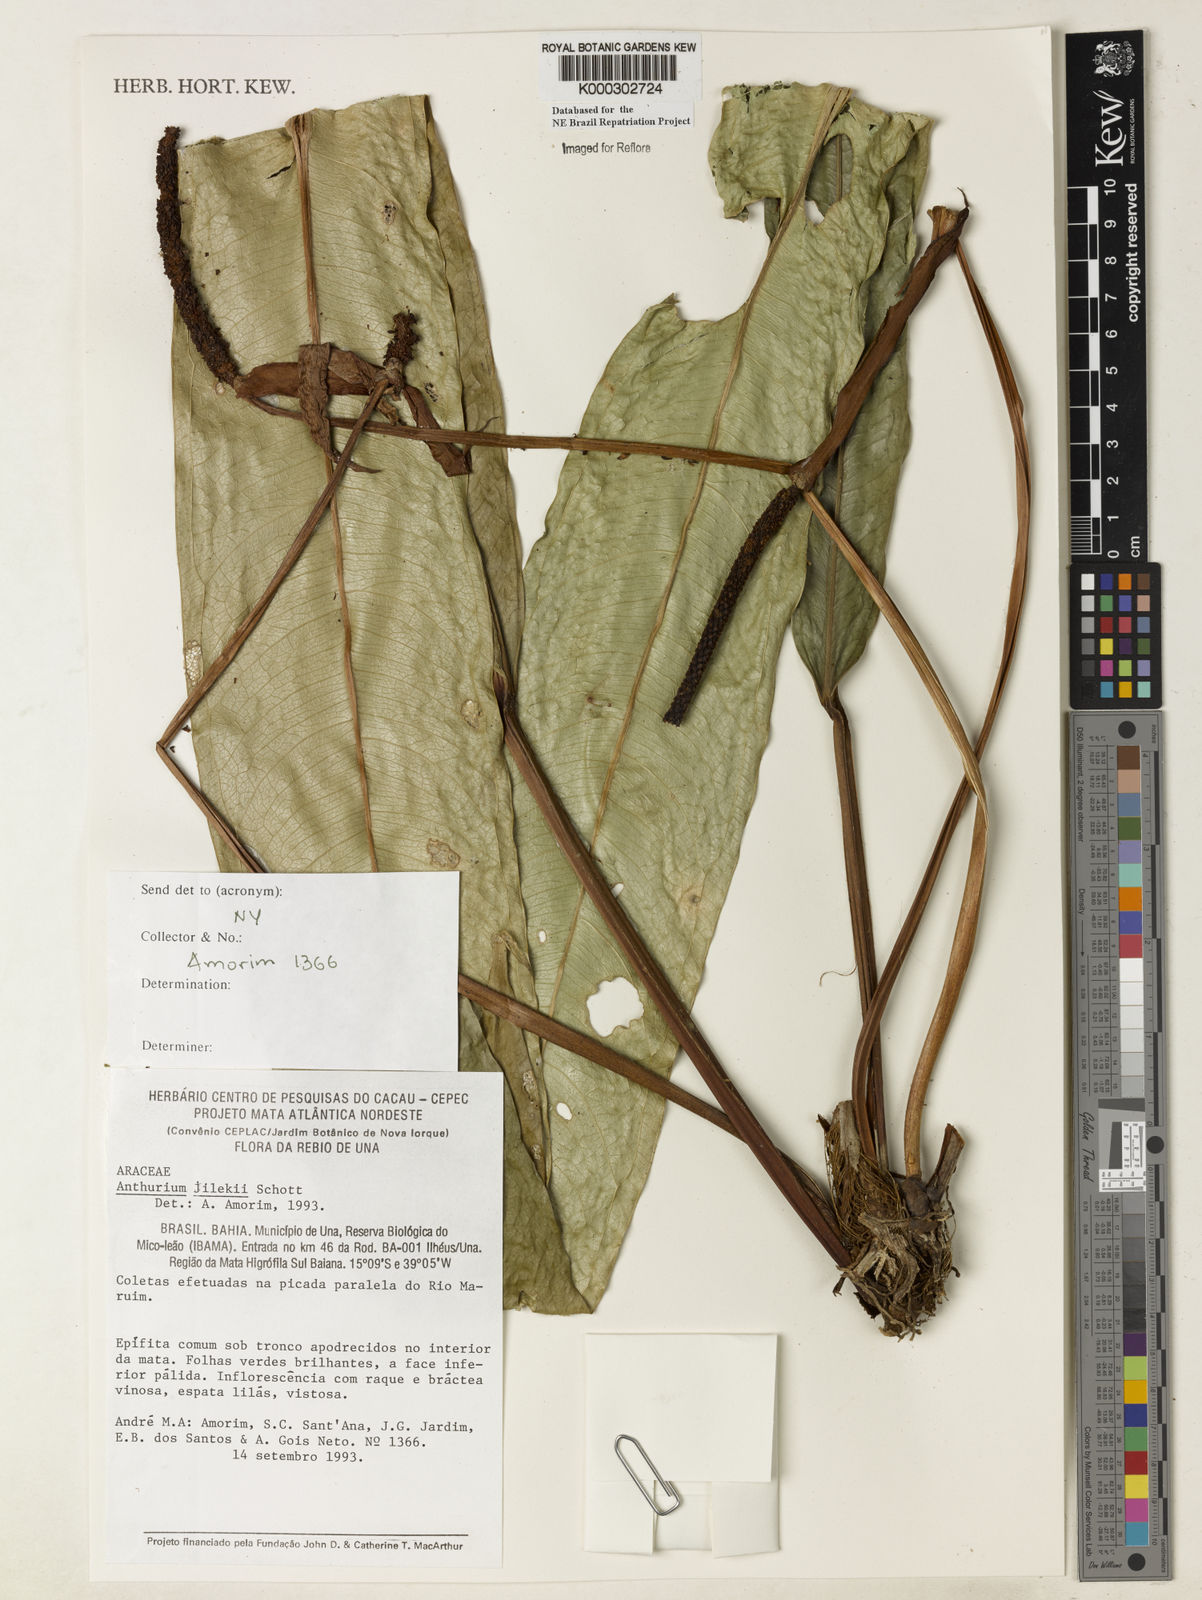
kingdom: Plantae
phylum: Tracheophyta
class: Liliopsida
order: Alismatales
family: Araceae
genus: Anthurium
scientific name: Anthurium jilekii
